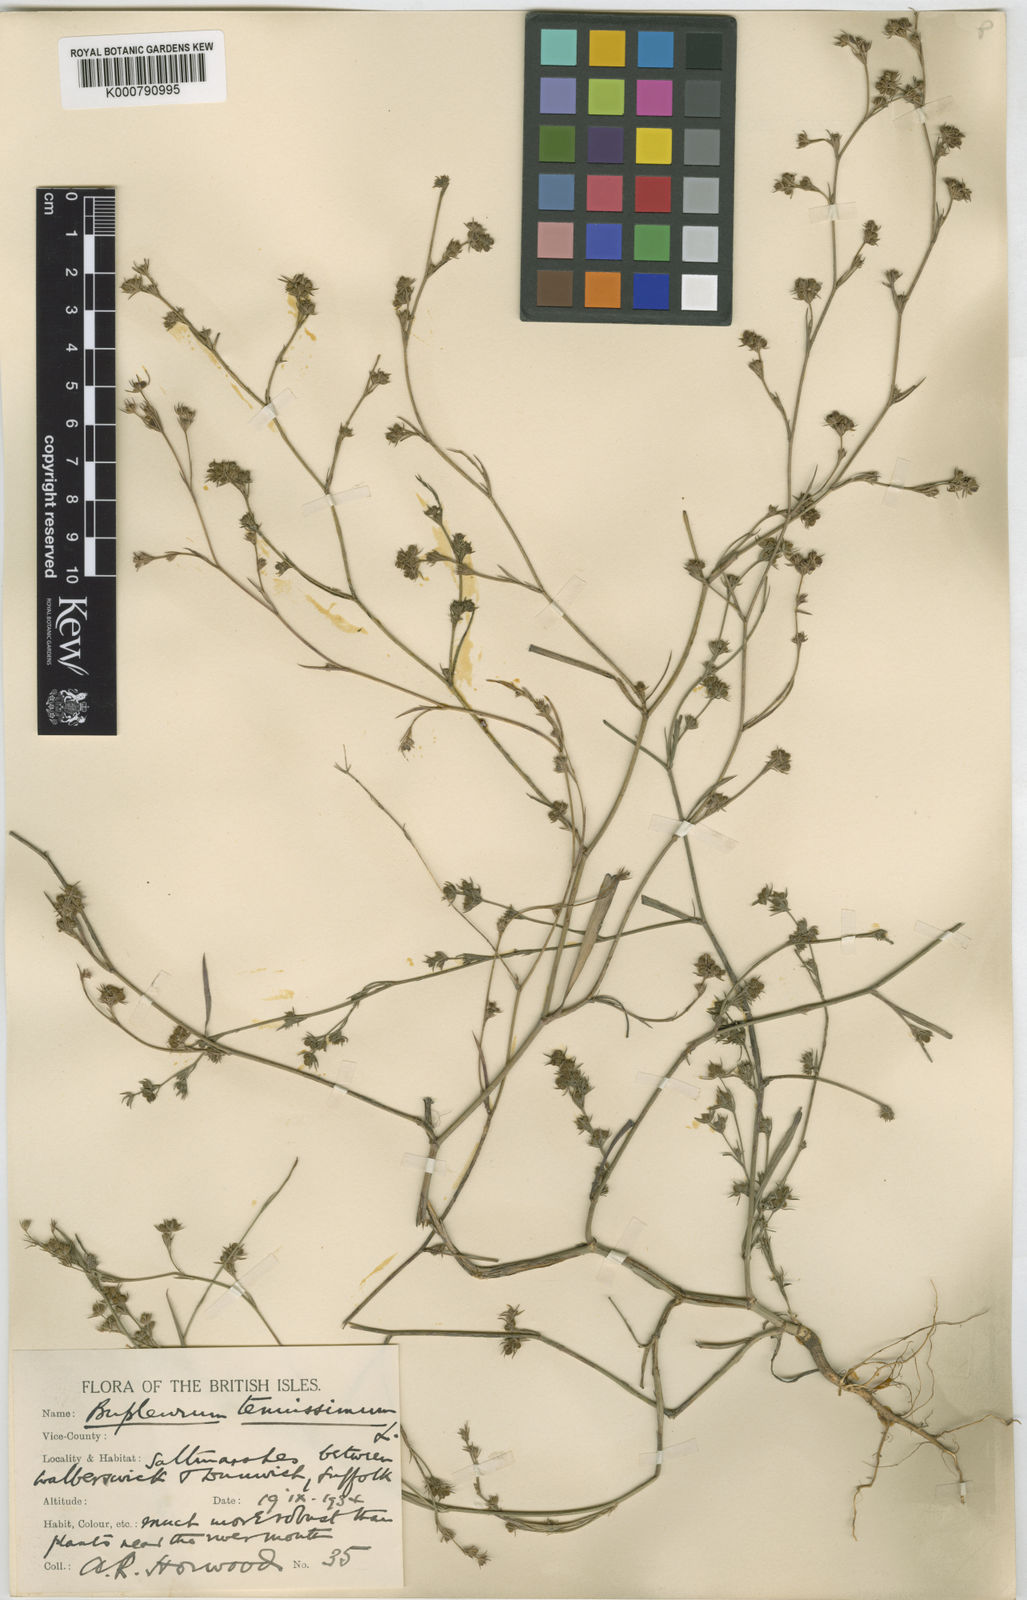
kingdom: Plantae
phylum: Tracheophyta
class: Magnoliopsida
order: Apiales
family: Apiaceae
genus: Bupleurum
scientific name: Bupleurum tenuissimum
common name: Slender hare's-ear
